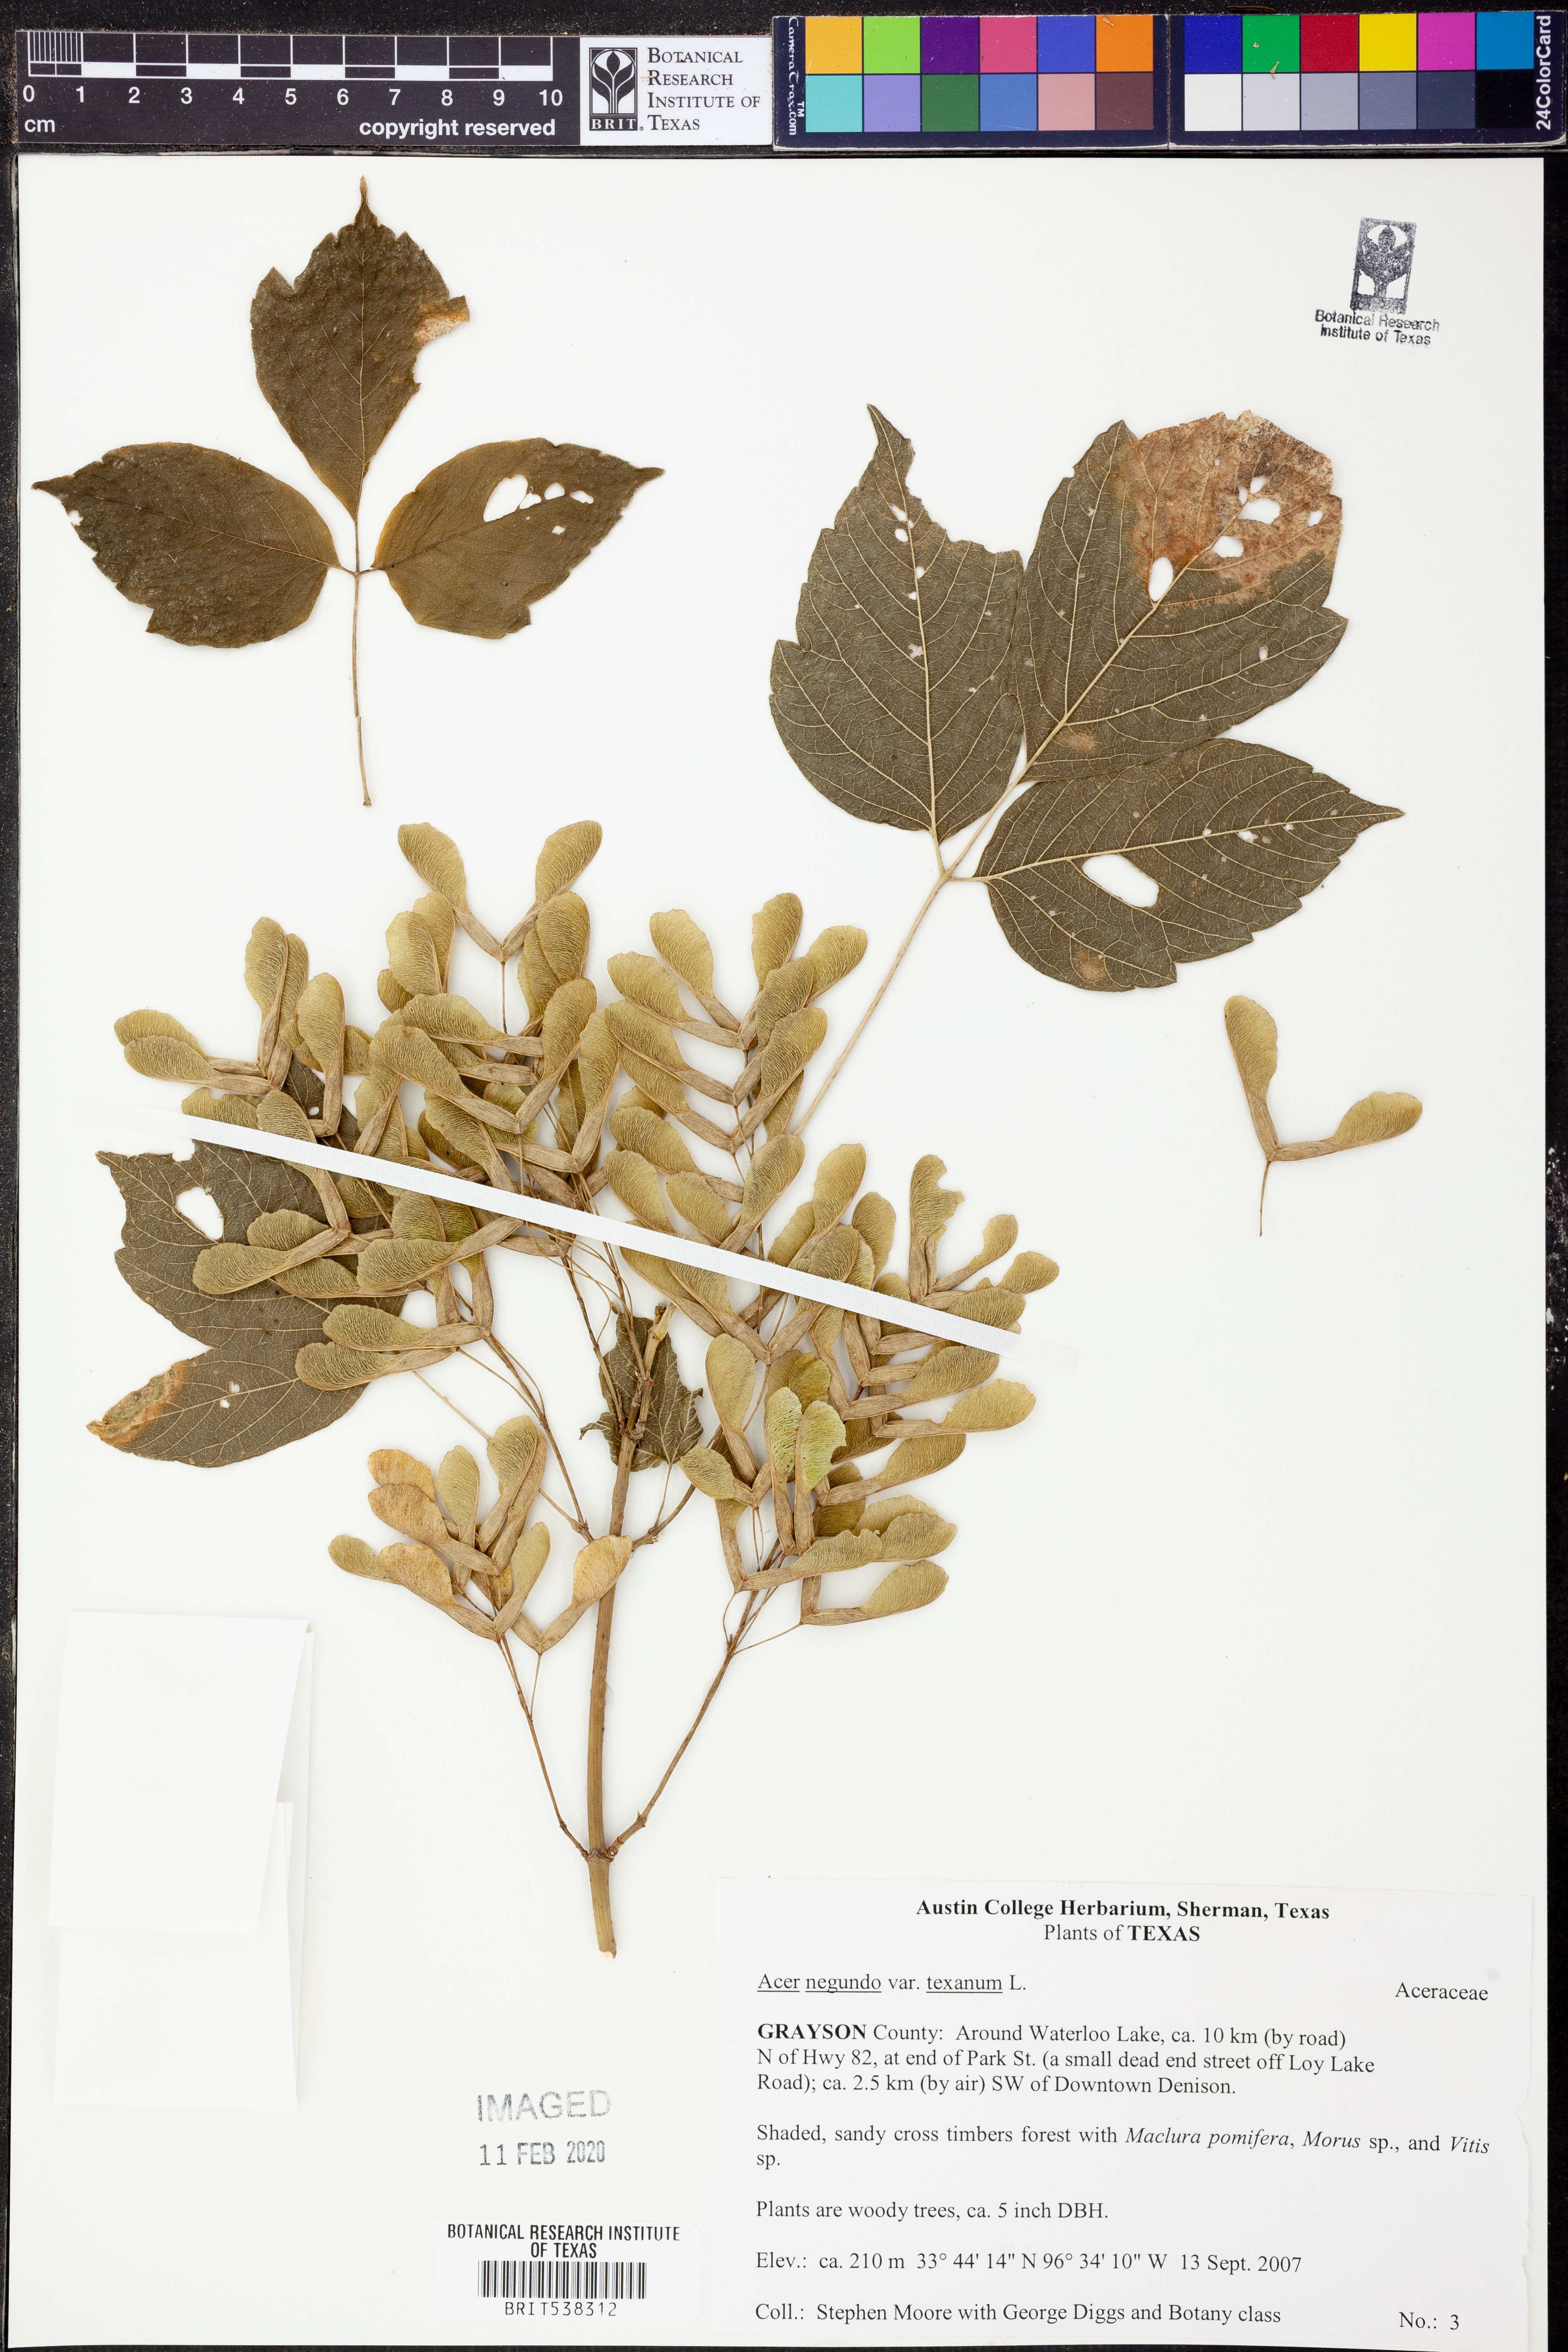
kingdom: Plantae
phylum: Tracheophyta
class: Magnoliopsida
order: Sapindales
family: Sapindaceae
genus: Acer
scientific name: Acer negundo
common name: Ashleaf maple
